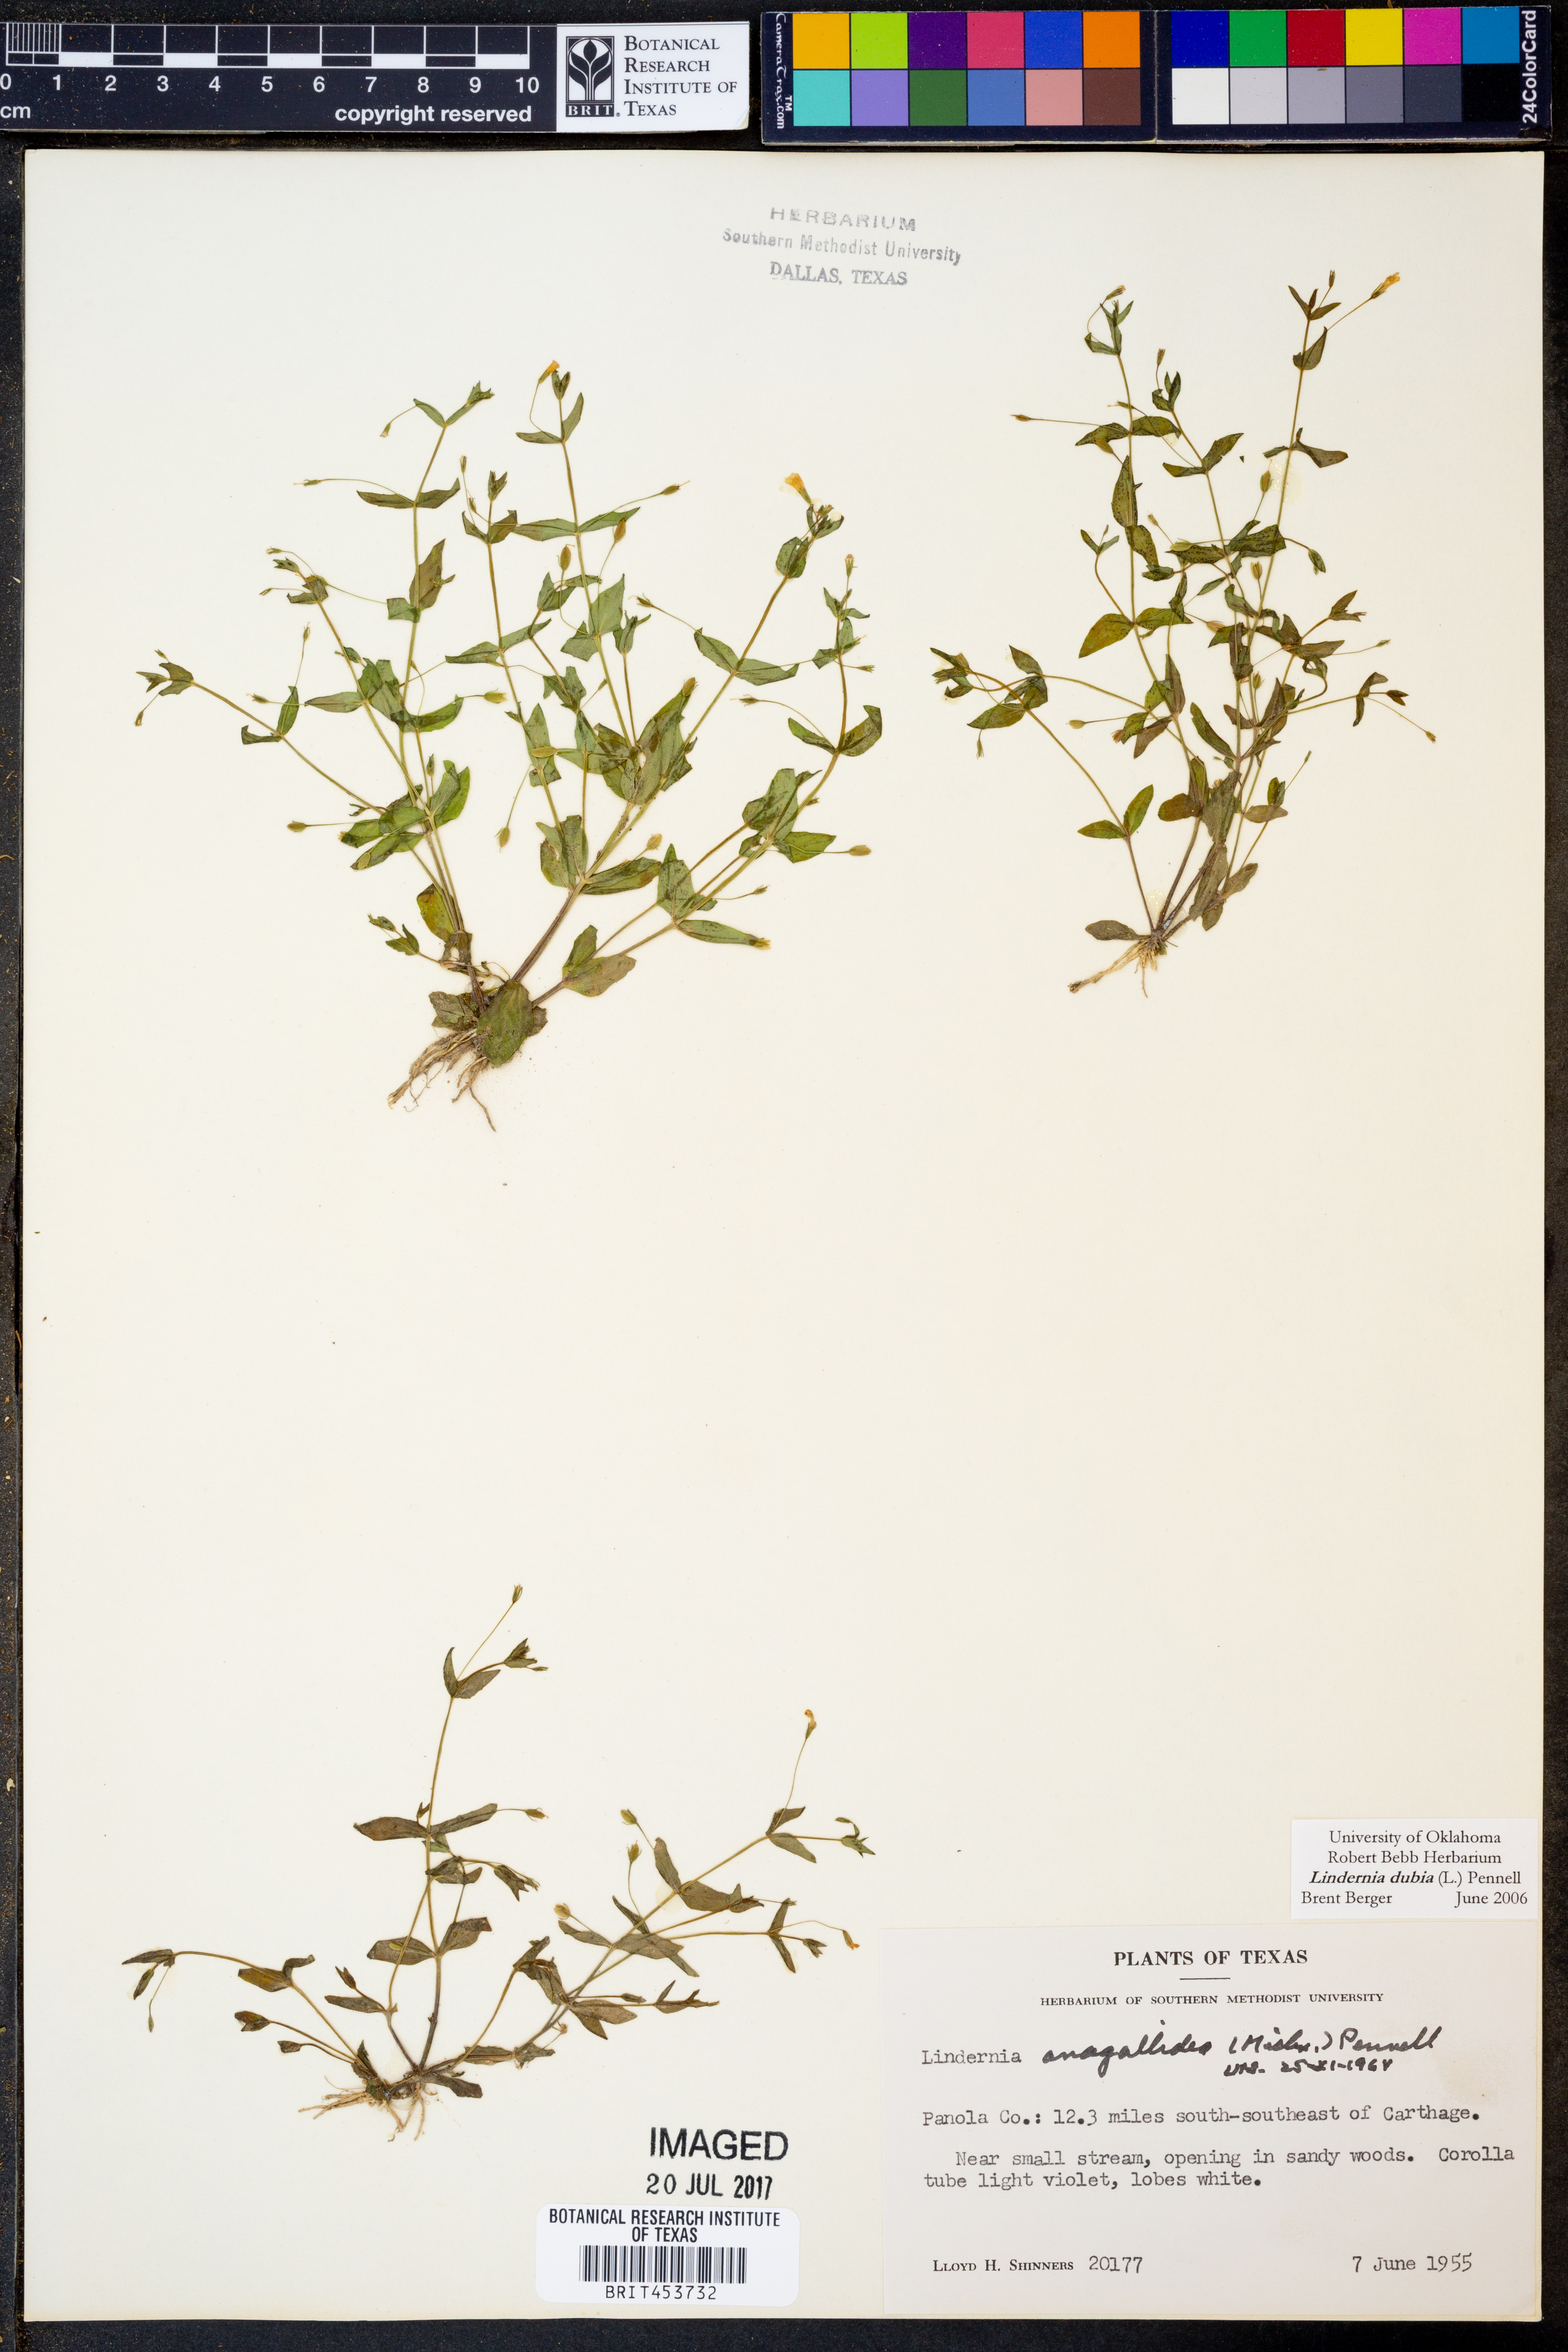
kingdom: Plantae
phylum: Tracheophyta
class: Magnoliopsida
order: Lamiales
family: Linderniaceae
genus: Lindernia
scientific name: Lindernia dubia
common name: Annual false pimpernel
